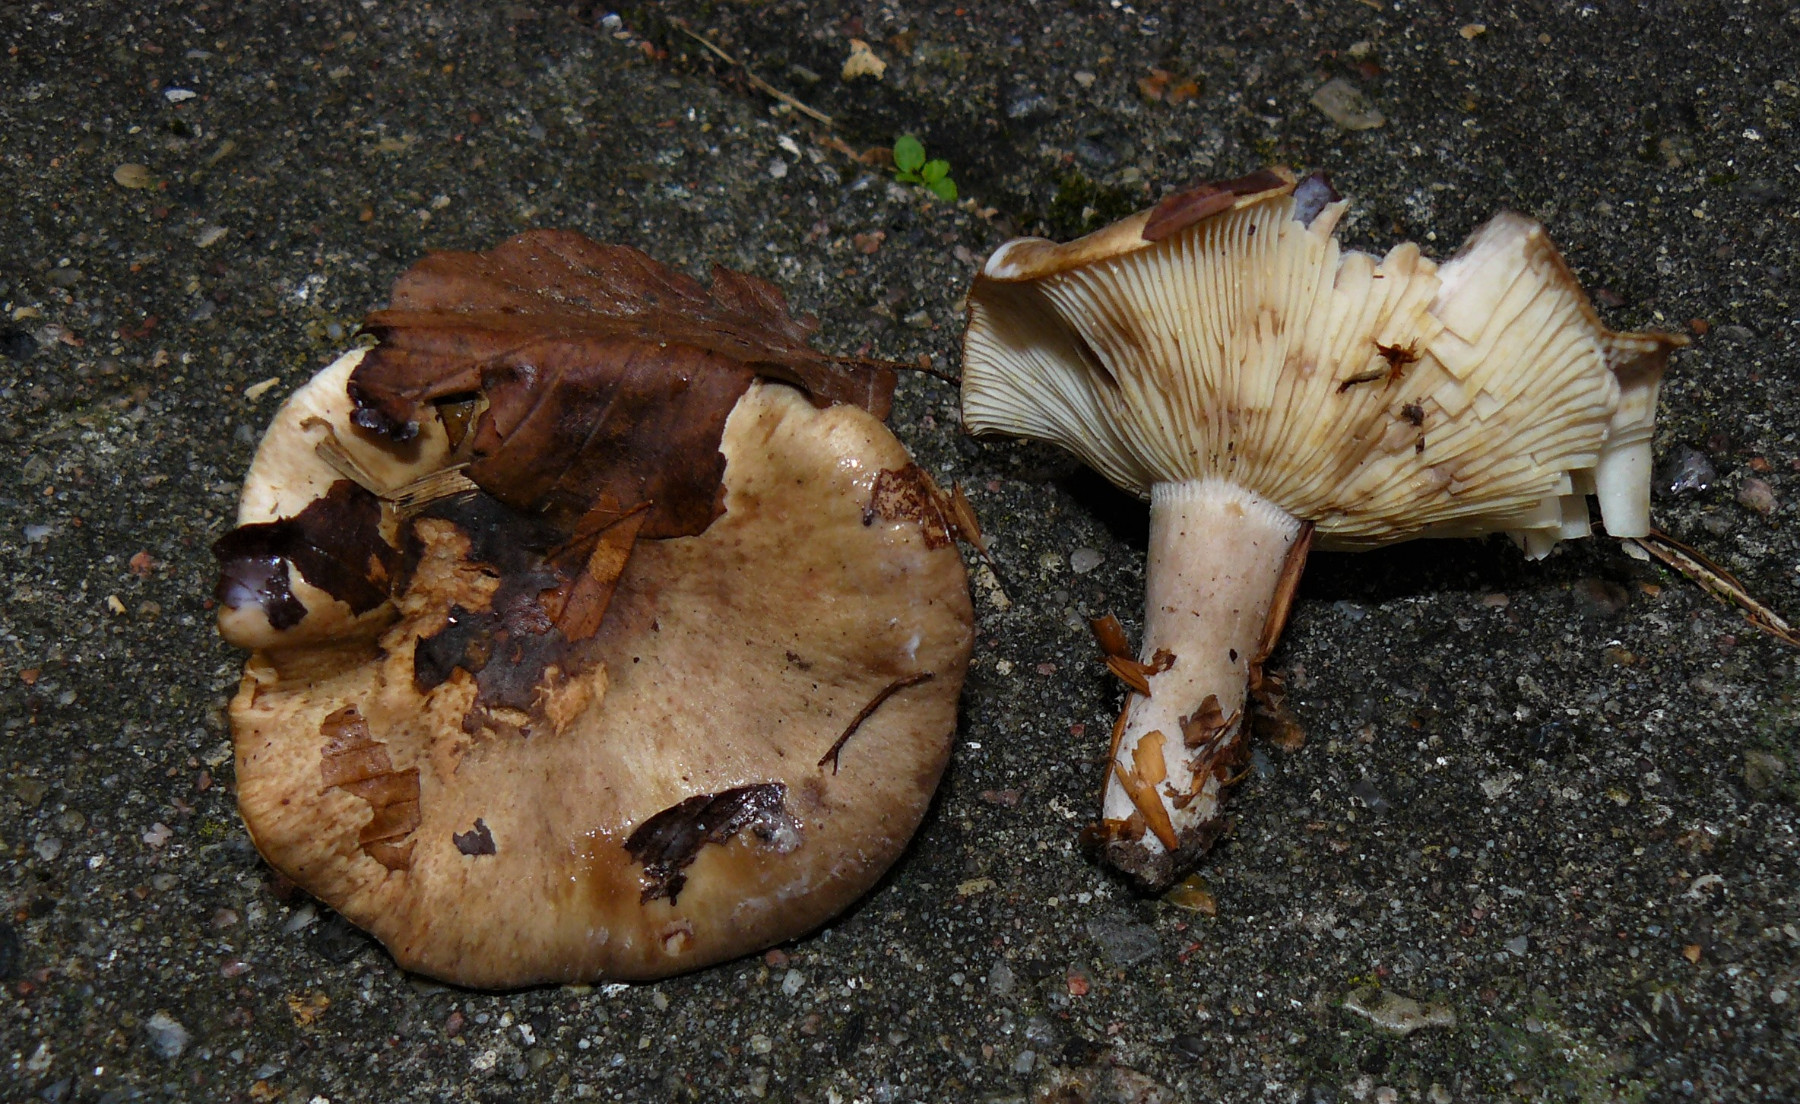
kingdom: Fungi
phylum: Basidiomycota
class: Agaricomycetes
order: Russulales
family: Russulaceae
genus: Lactarius
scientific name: Lactarius blennius
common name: dråbeplettet mælkehat
